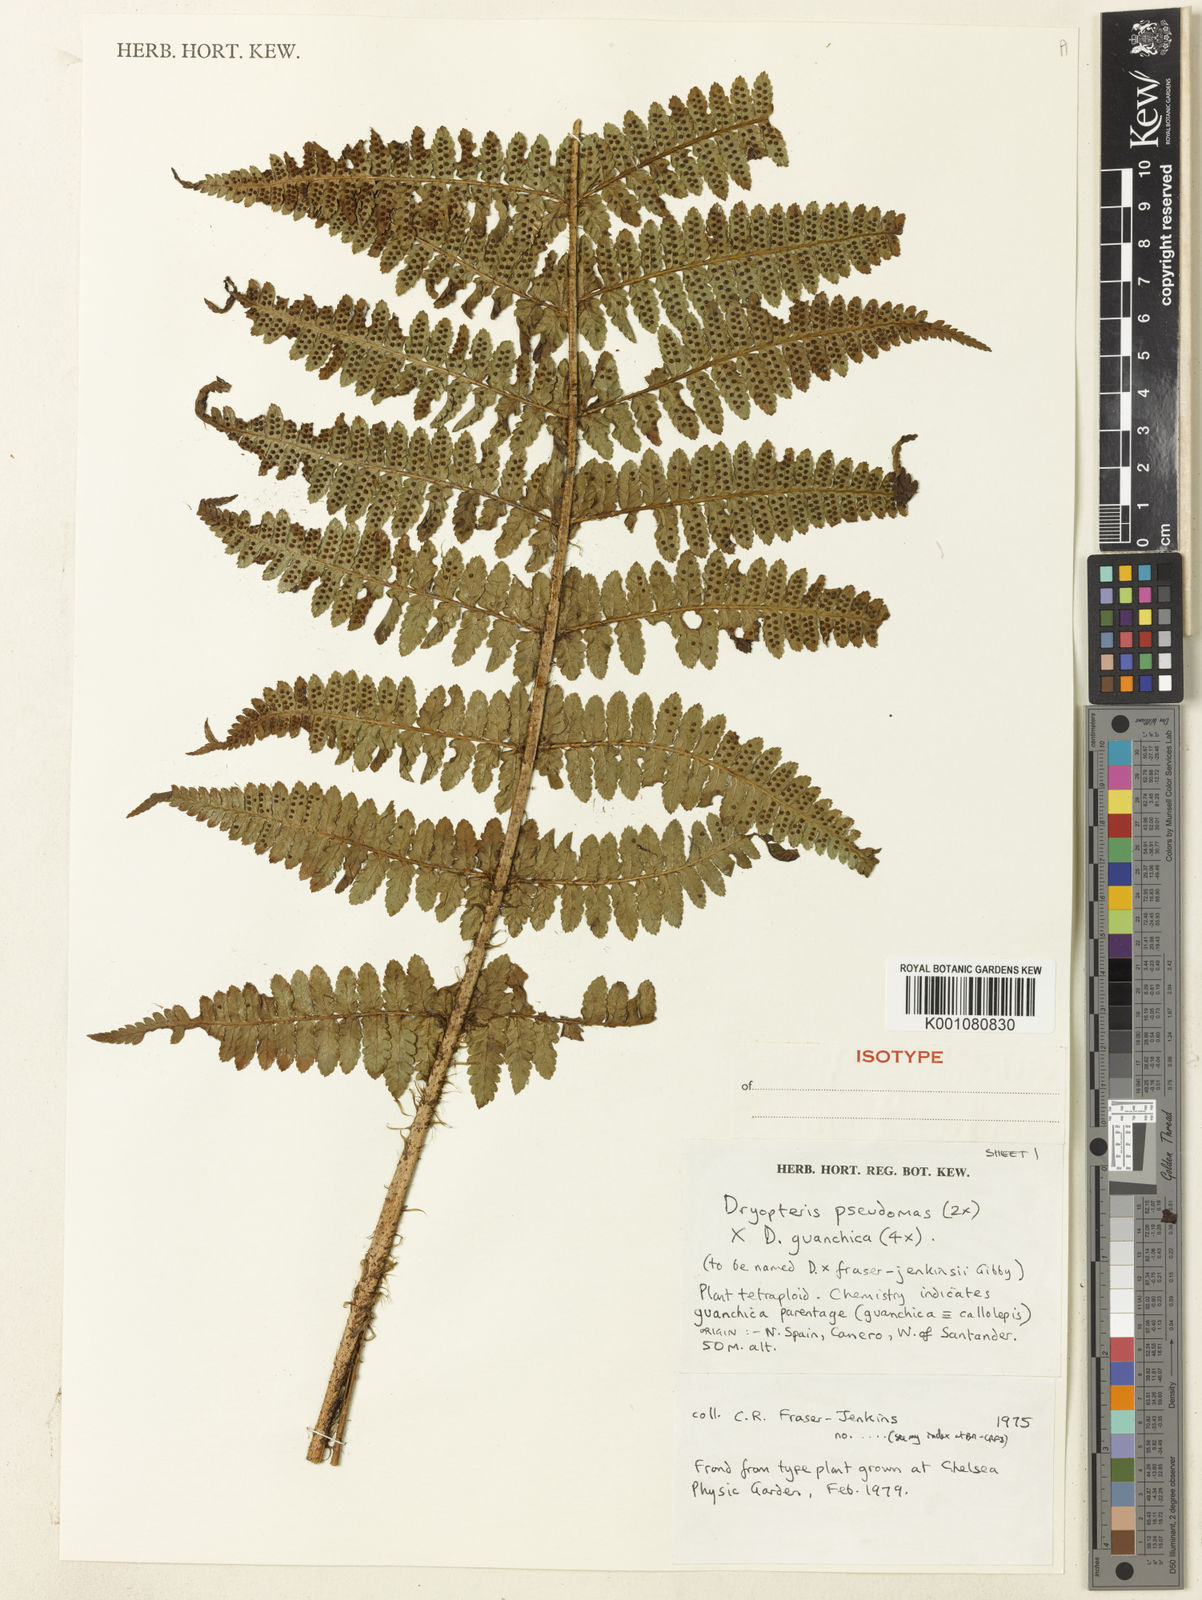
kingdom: Plantae
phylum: Tracheophyta
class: Polypodiopsida
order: Polypodiales
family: Dryopteridaceae
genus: Dryopteris
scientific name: Dryopteris affinis
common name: Scaly male fern
